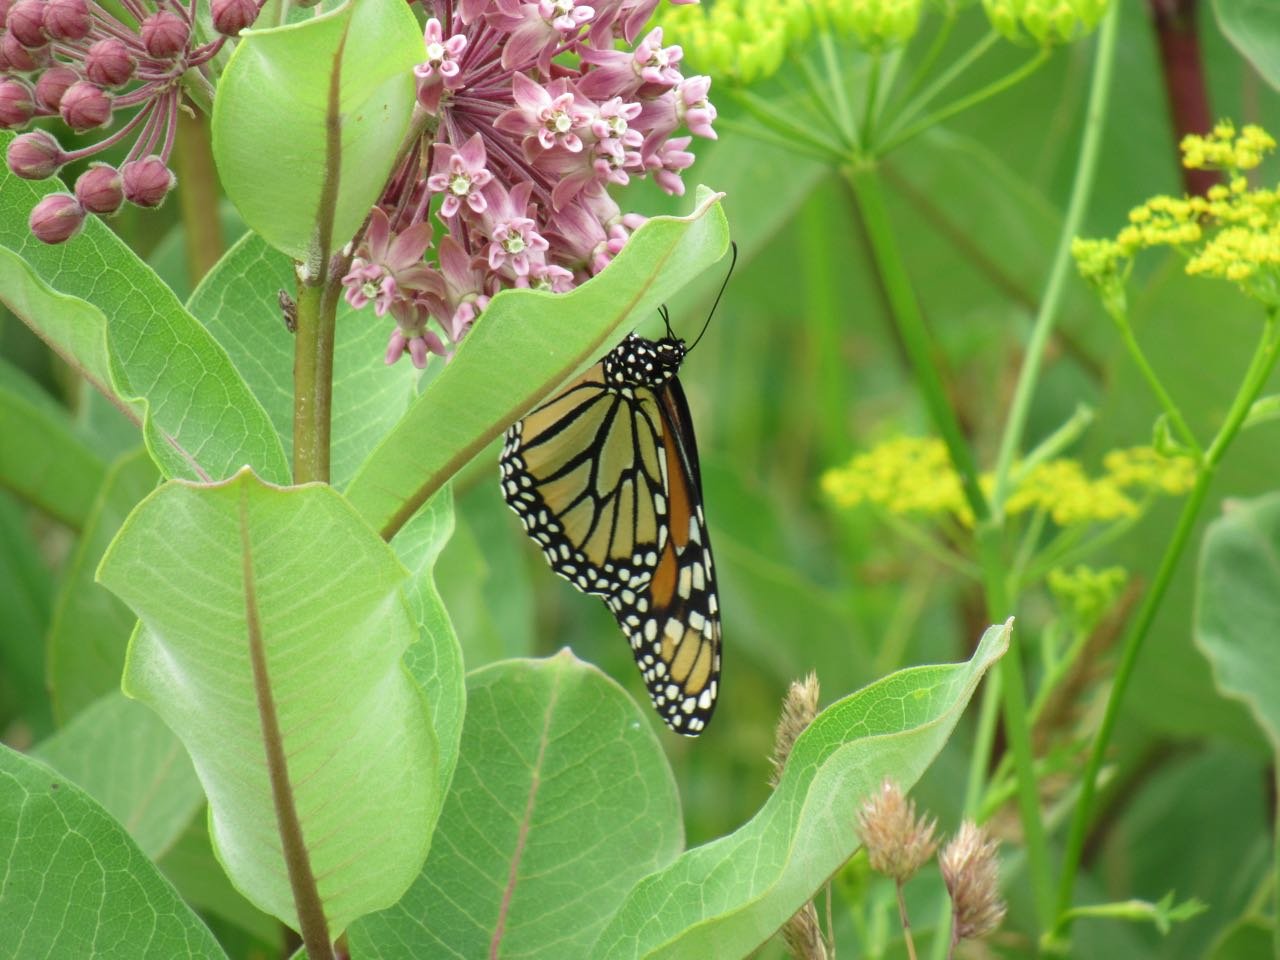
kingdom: Animalia
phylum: Arthropoda
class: Insecta
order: Lepidoptera
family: Nymphalidae
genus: Danaus
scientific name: Danaus plexippus
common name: Monarch
